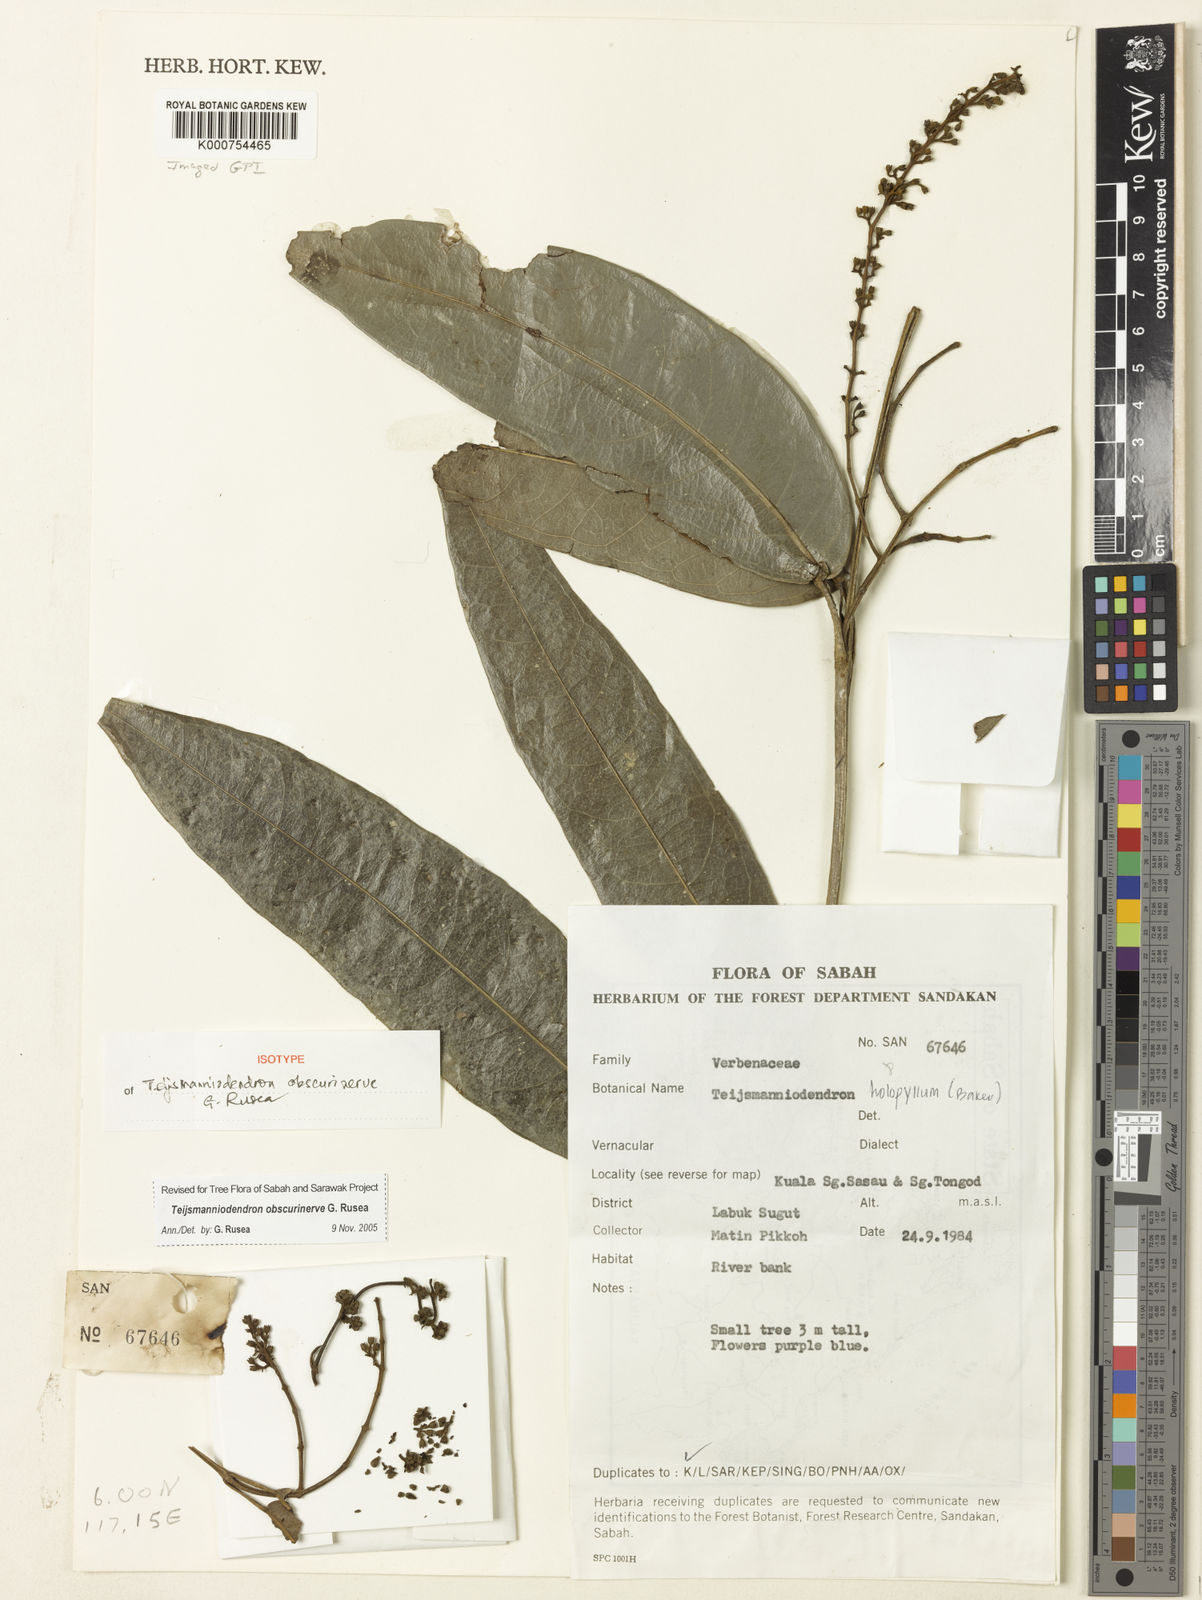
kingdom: Plantae
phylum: Tracheophyta
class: Magnoliopsida
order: Lamiales
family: Lamiaceae
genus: Teijsmanniodendron
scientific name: Teijsmanniodendron obscurinerve
